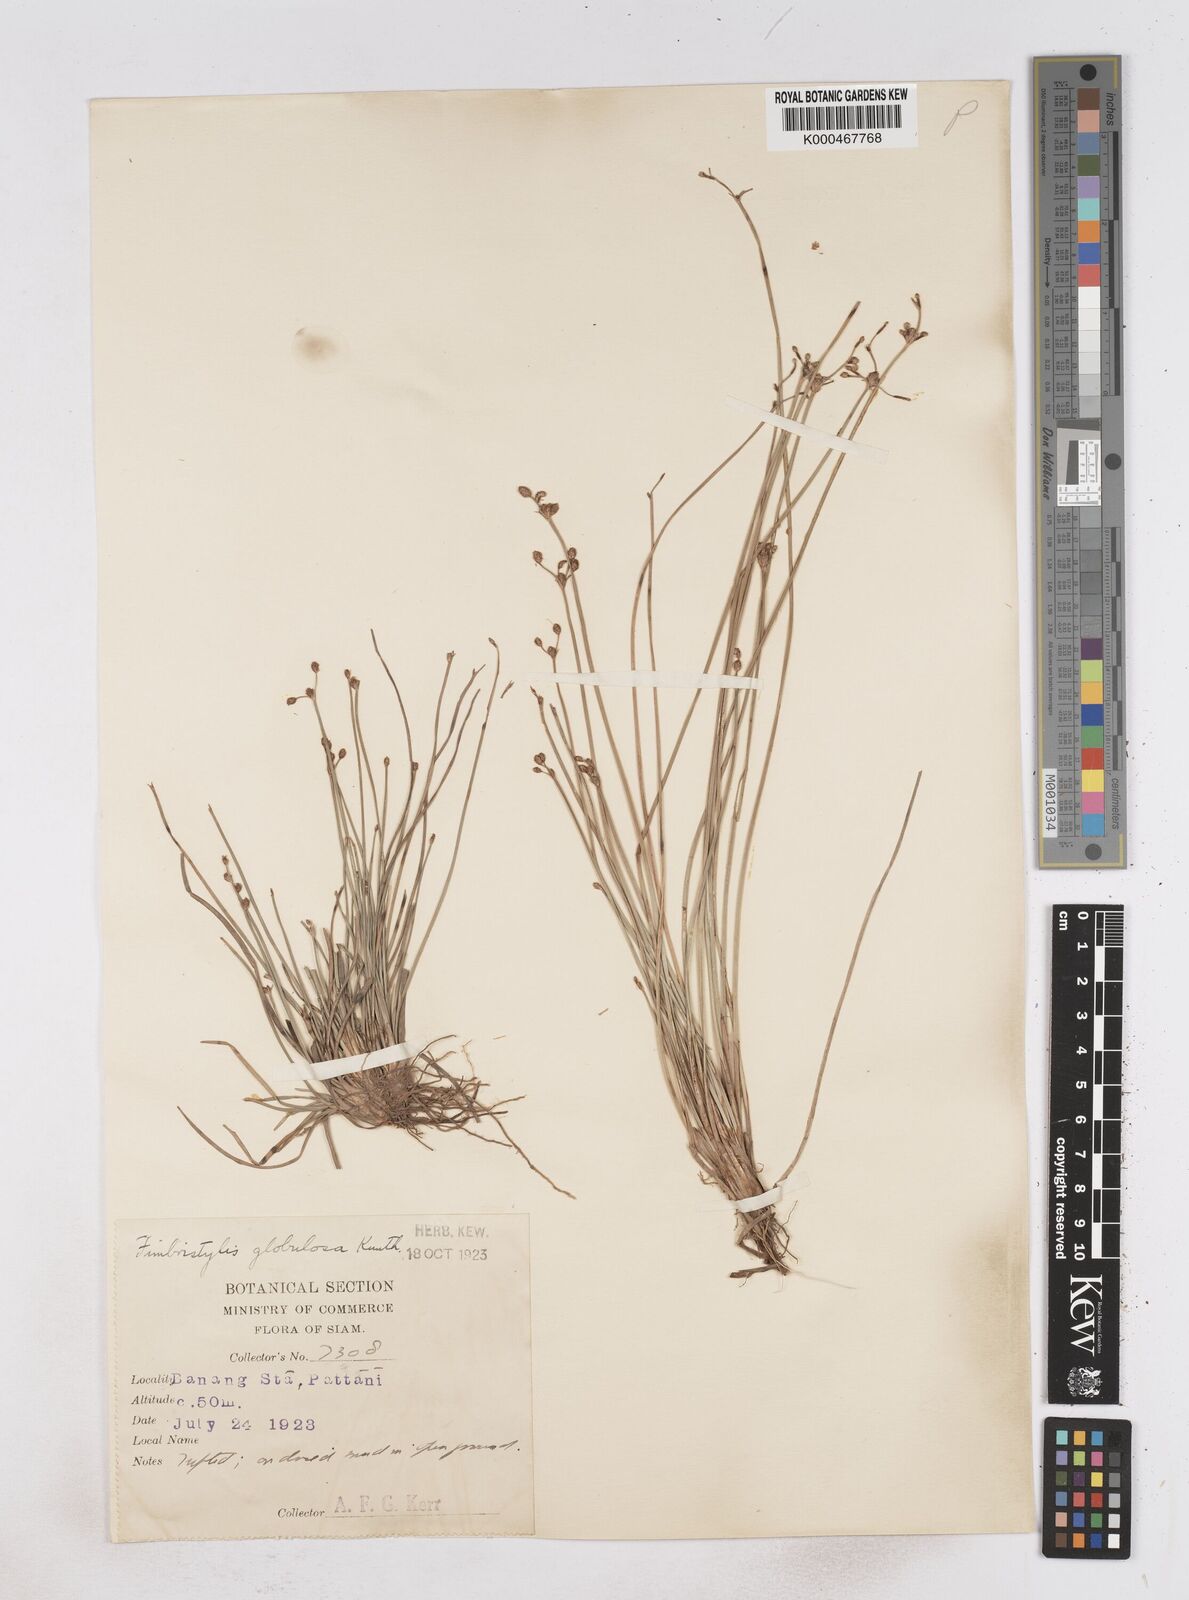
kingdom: Plantae
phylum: Tracheophyta
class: Liliopsida
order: Poales
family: Cyperaceae
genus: Fimbristylis
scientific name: Fimbristylis umbellaris
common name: Globular fimbristylis
